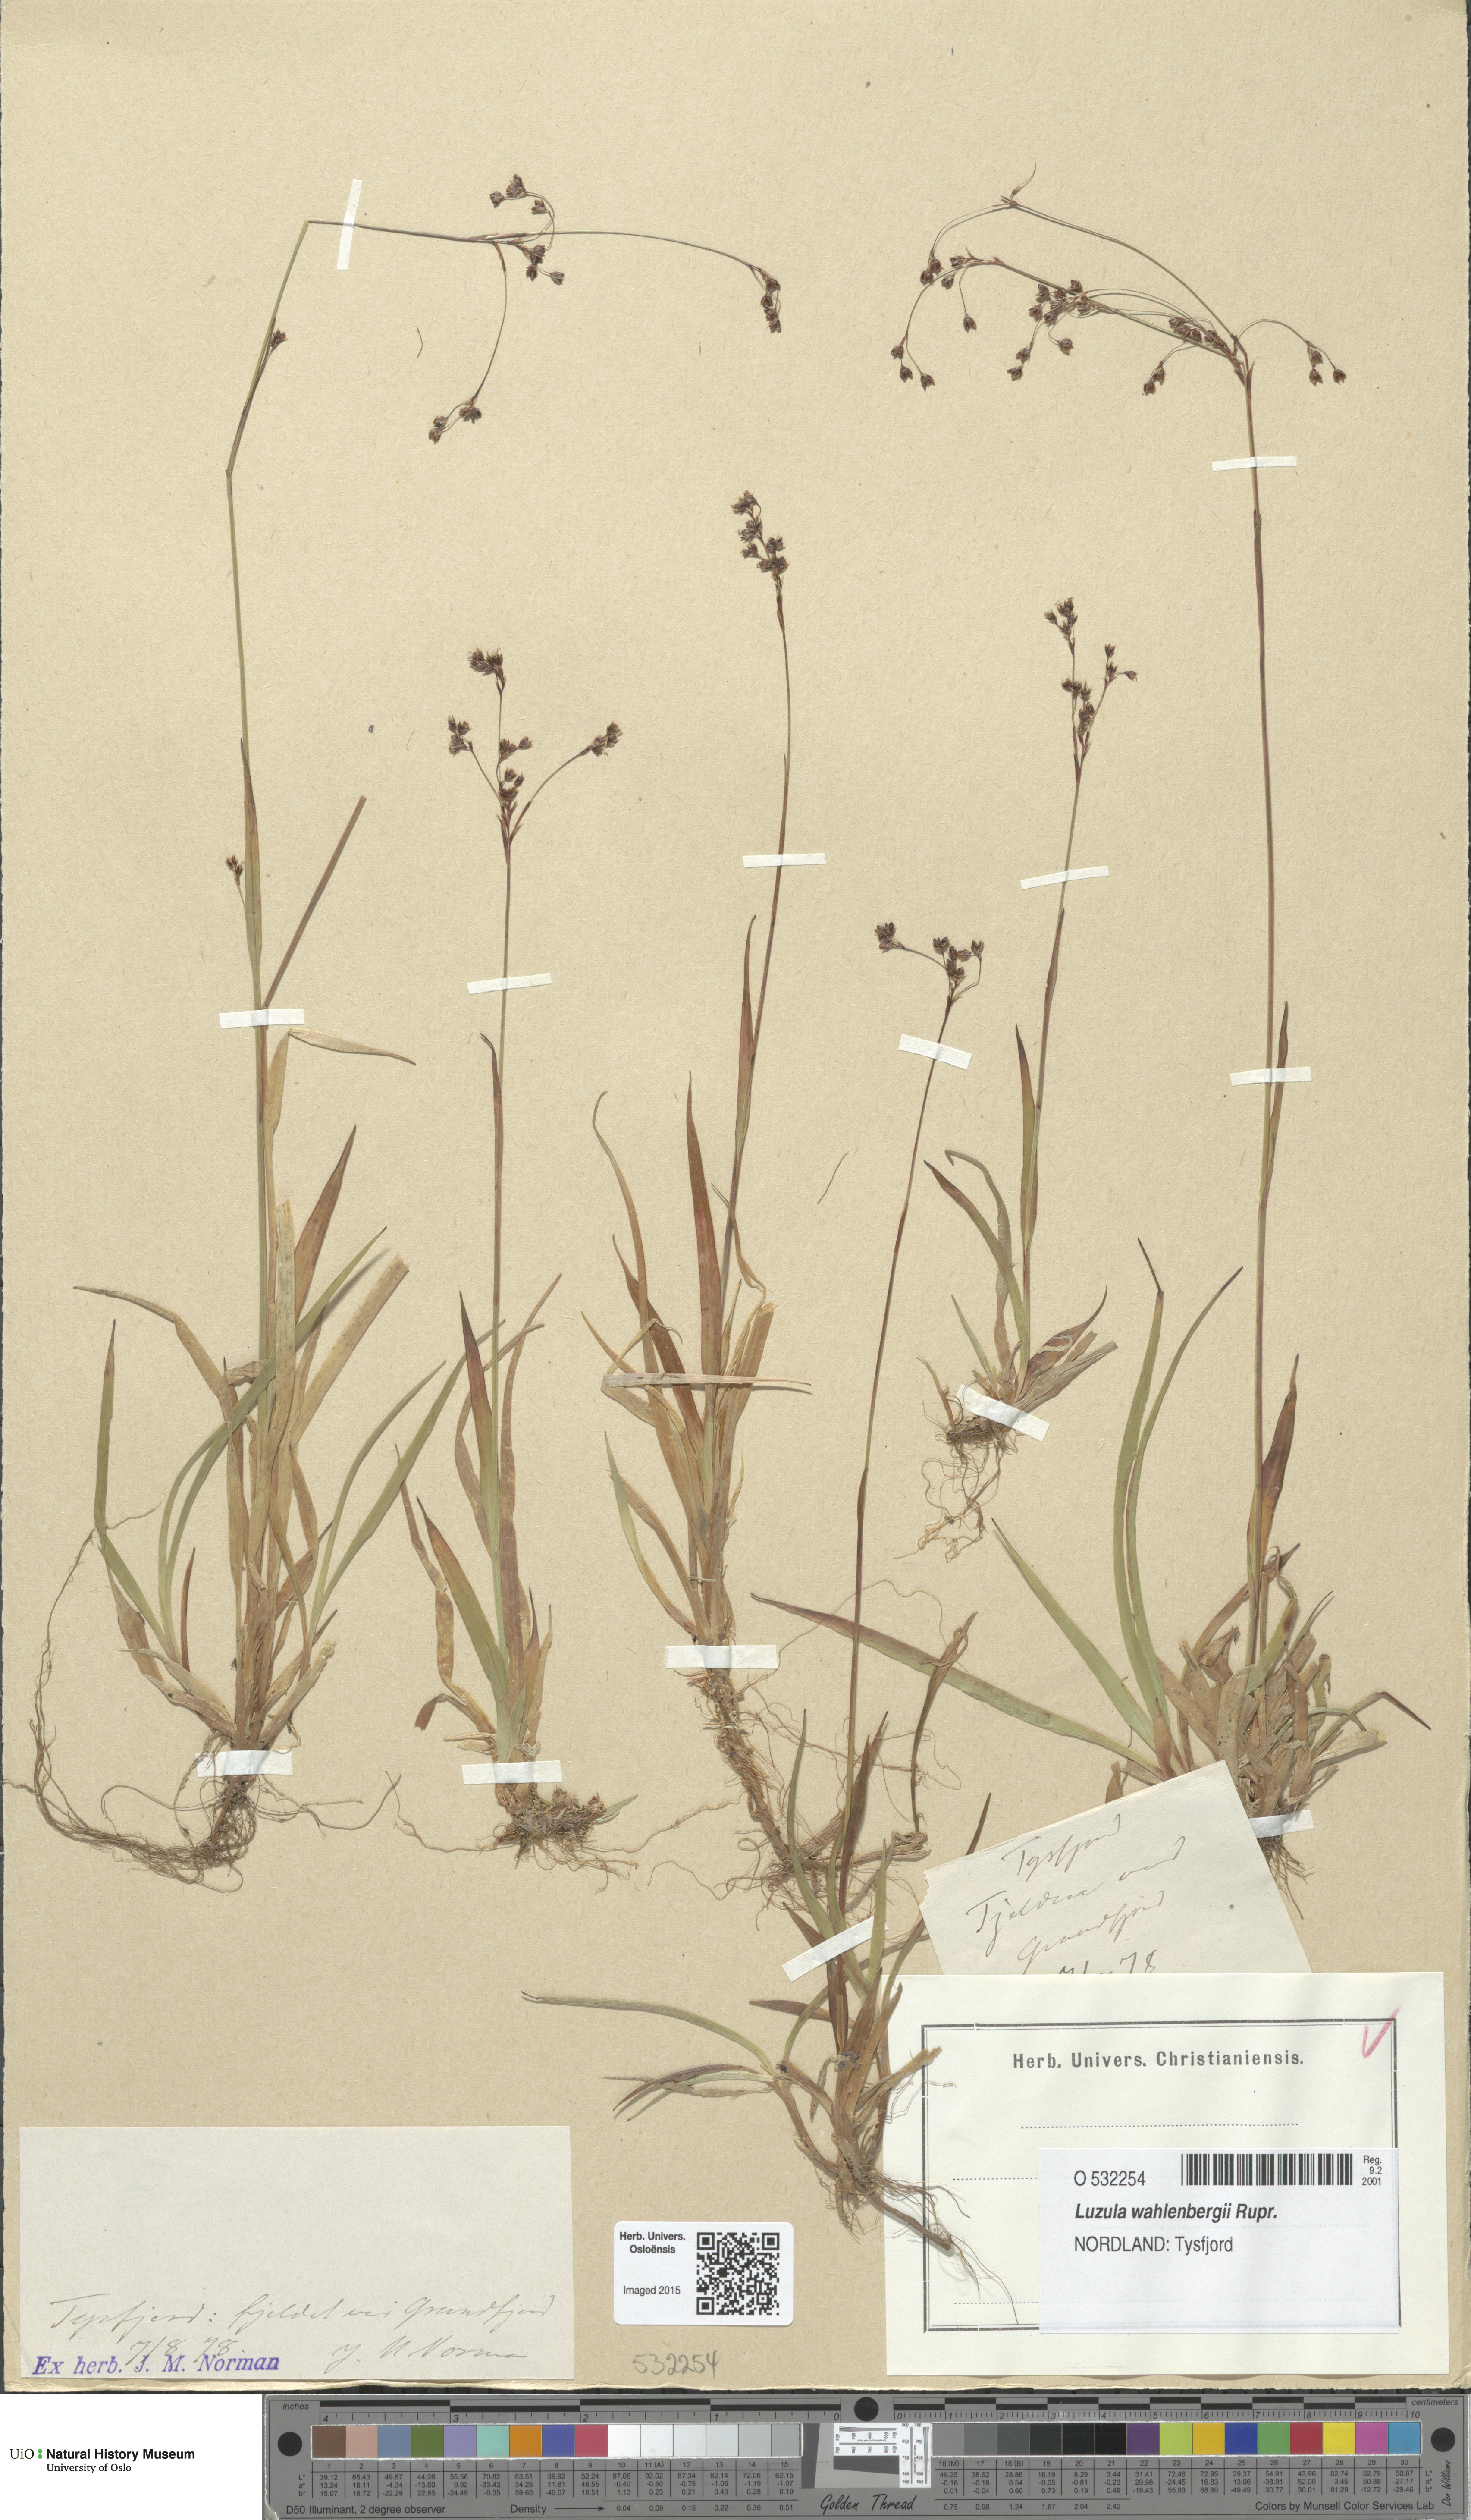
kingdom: Plantae
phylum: Tracheophyta
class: Liliopsida
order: Poales
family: Juncaceae
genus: Luzula
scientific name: Luzula wahlenbergii
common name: Wahlenberg's wood-rush
